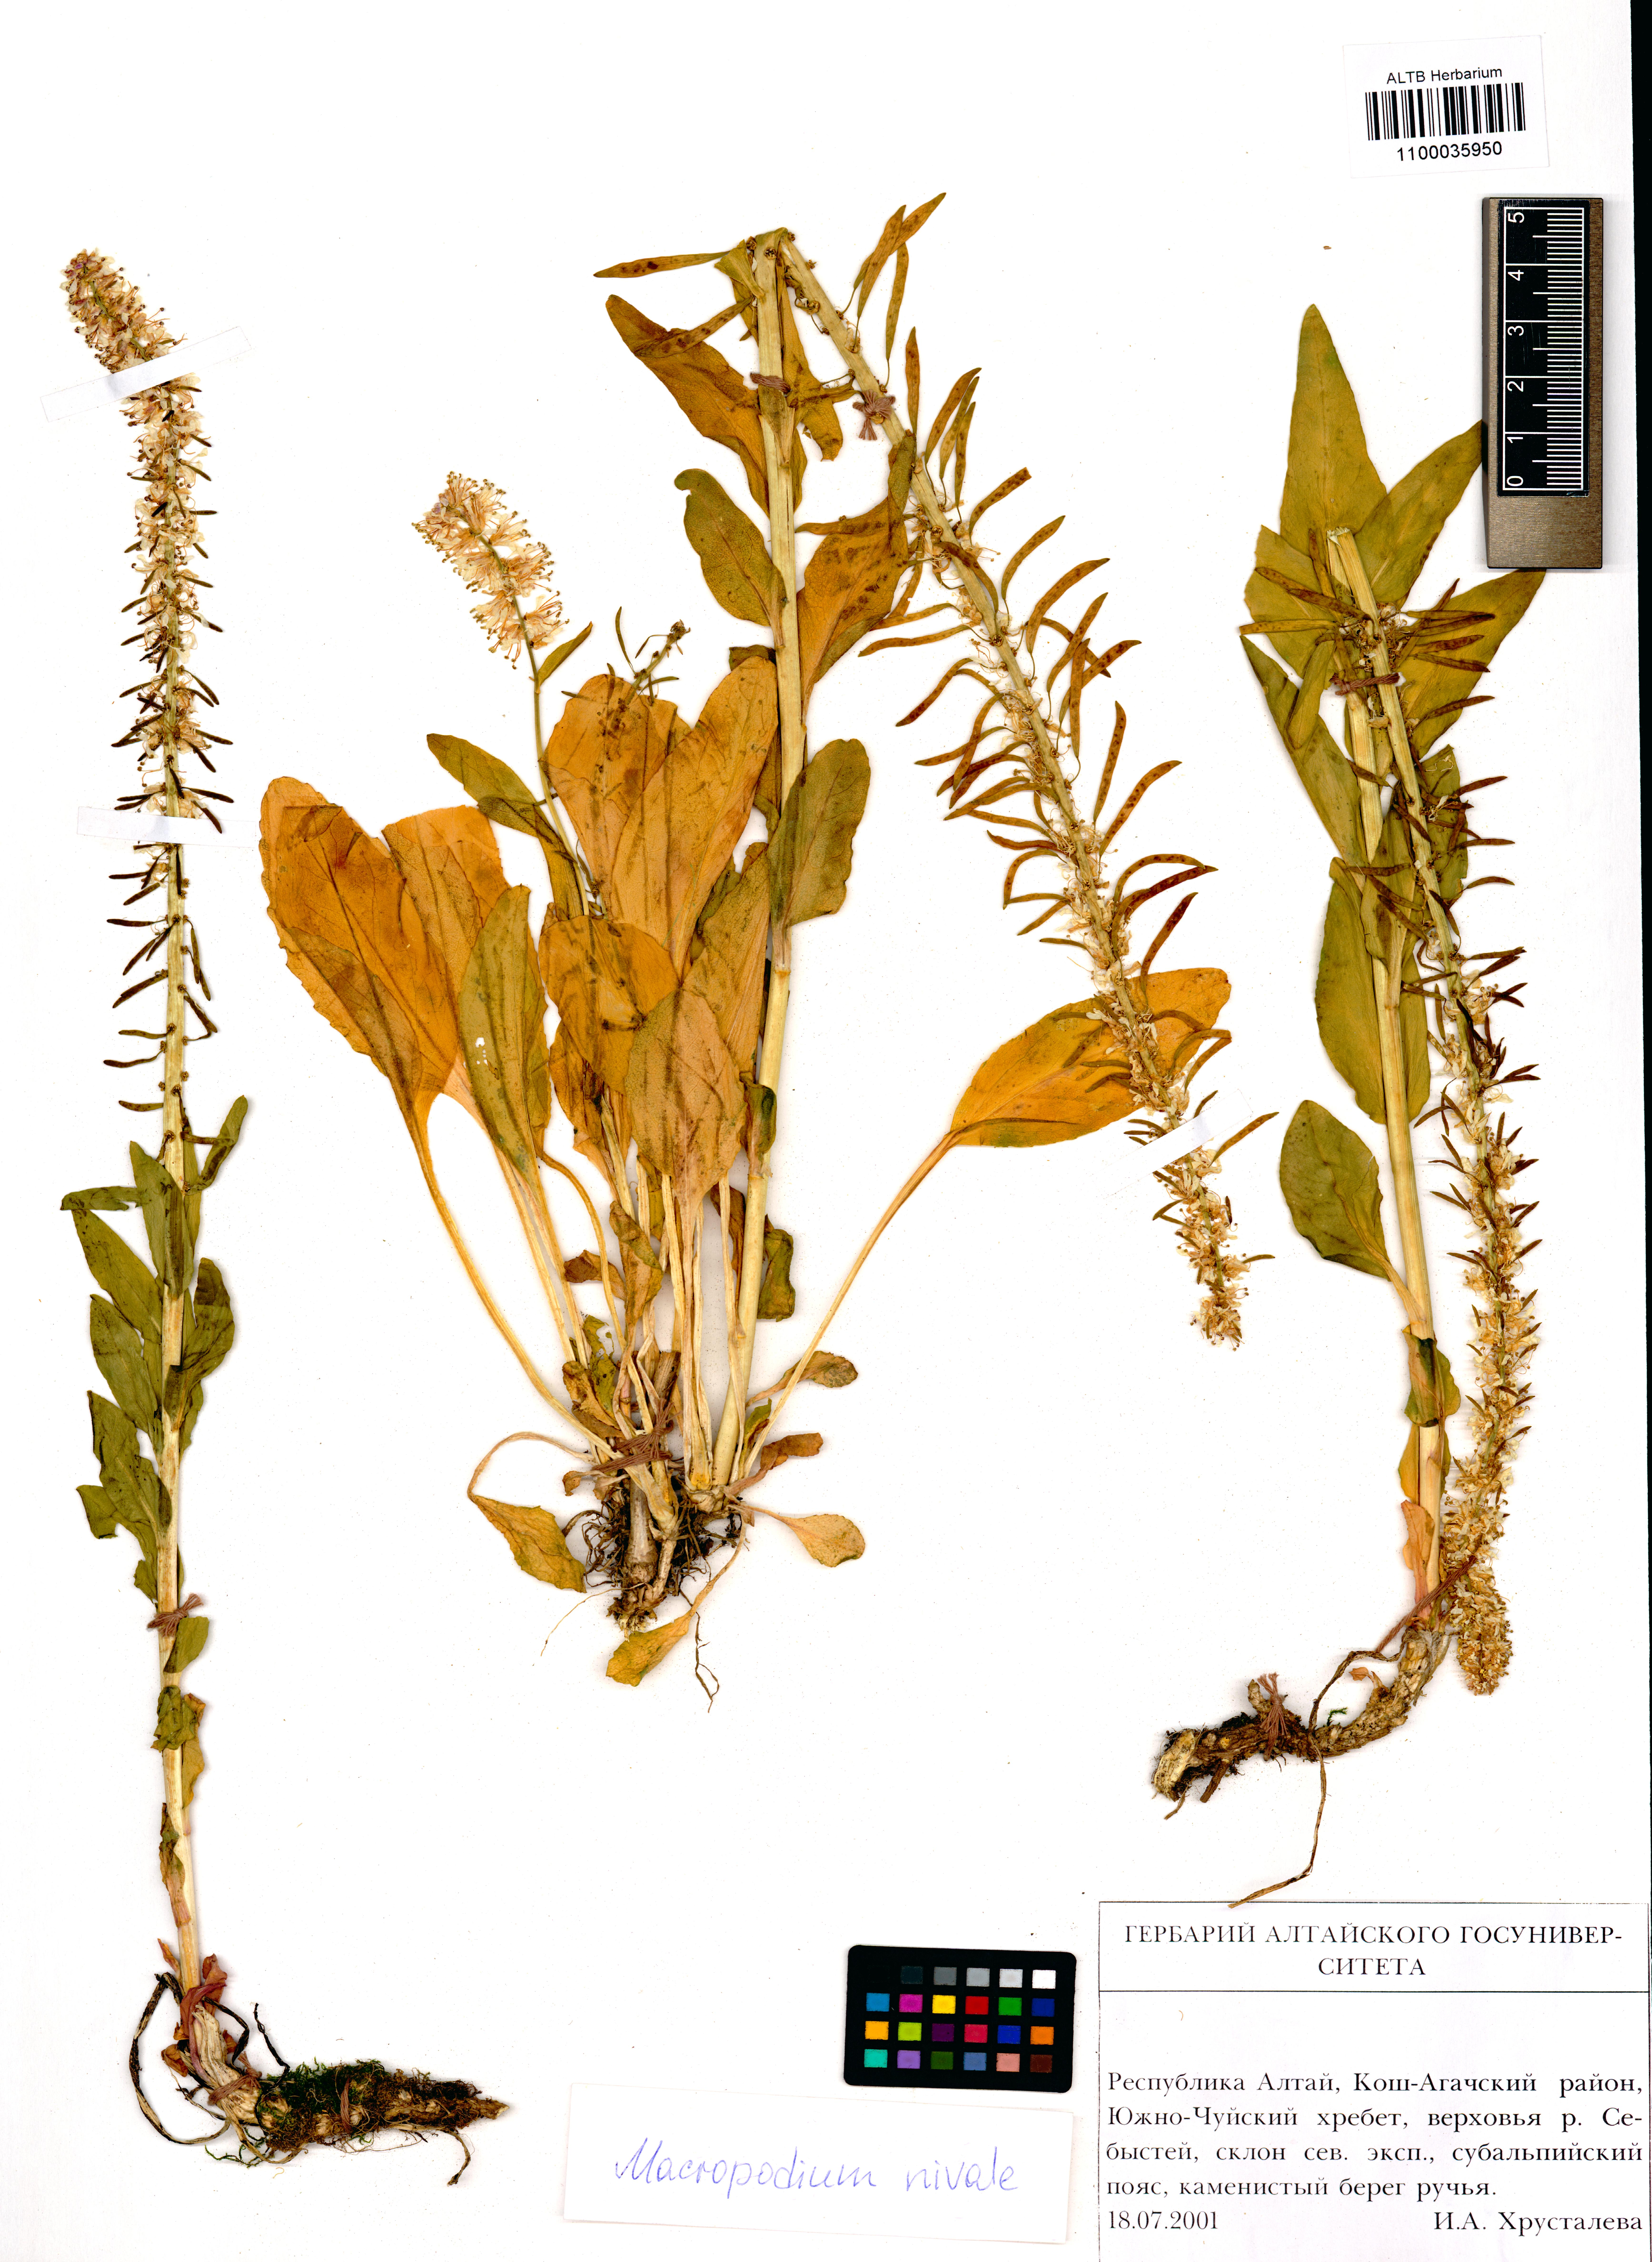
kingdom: Plantae
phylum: Tracheophyta
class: Magnoliopsida
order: Brassicales
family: Brassicaceae
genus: Macropodium
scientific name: Macropodium nivale
